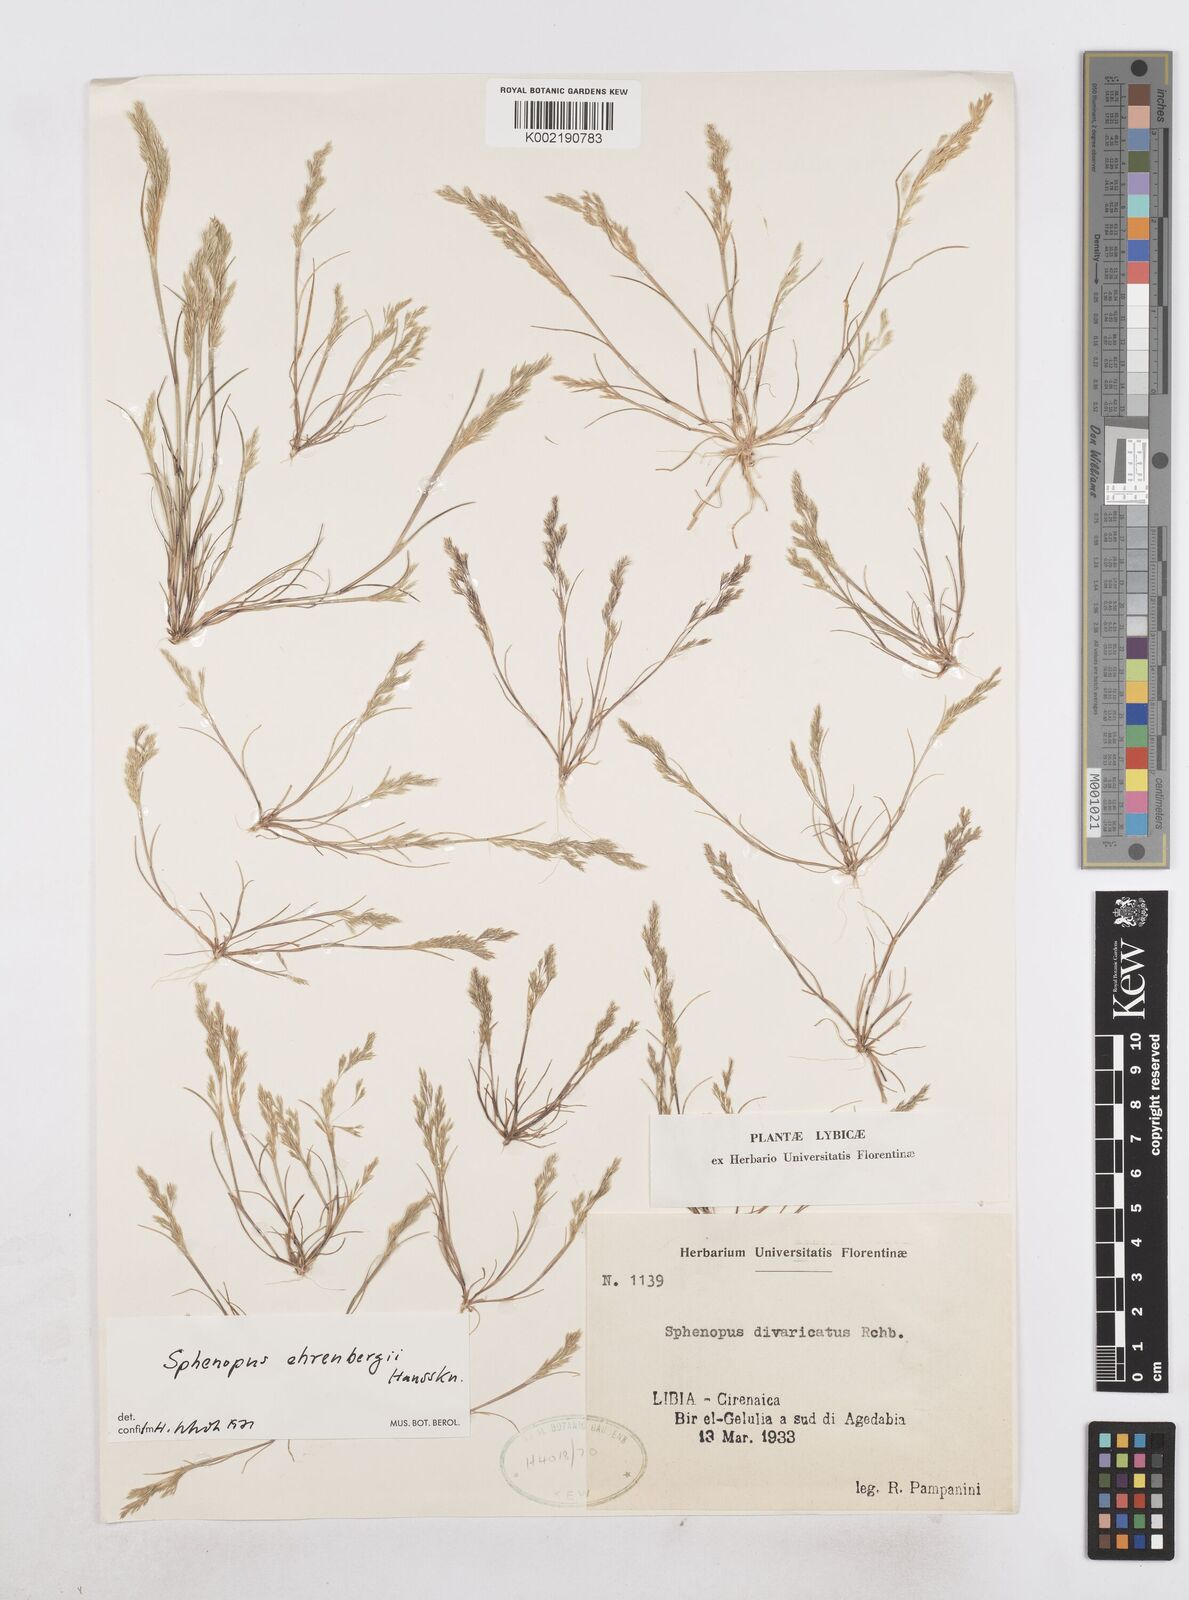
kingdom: Plantae
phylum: Tracheophyta
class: Liliopsida
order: Poales
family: Poaceae
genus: Sphenopus
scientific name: Sphenopus ehrenbergii
